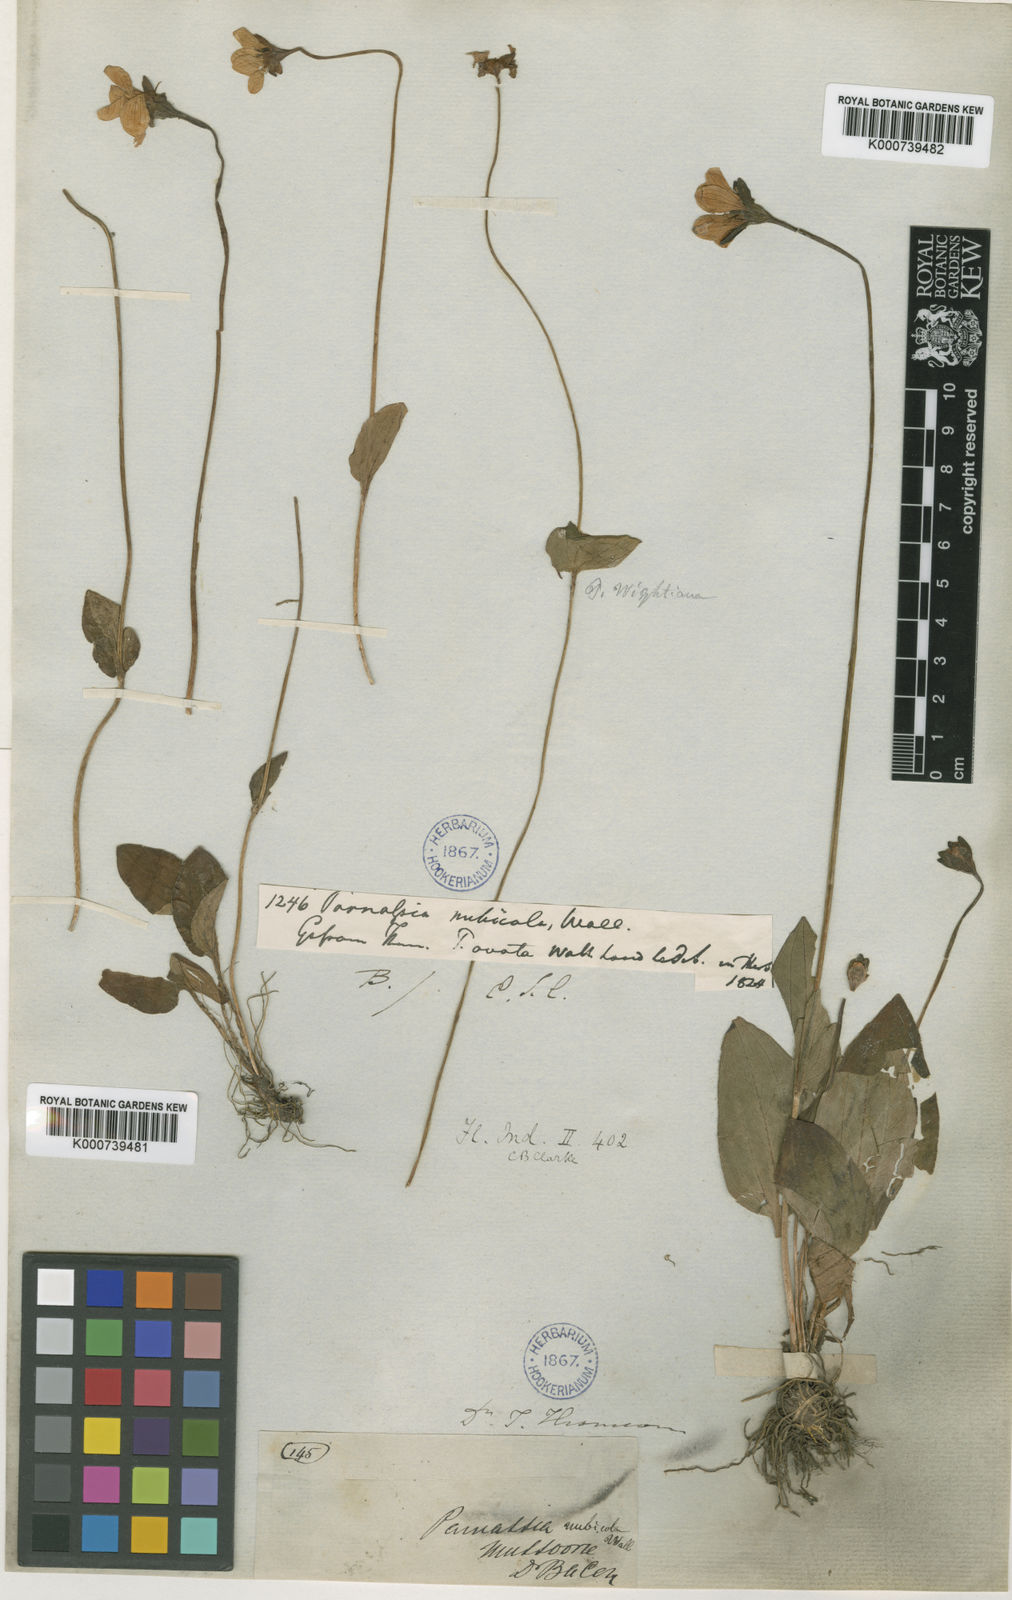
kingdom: Plantae
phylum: Tracheophyta
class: Magnoliopsida
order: Celastrales
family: Parnassiaceae
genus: Parnassia
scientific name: Parnassia
